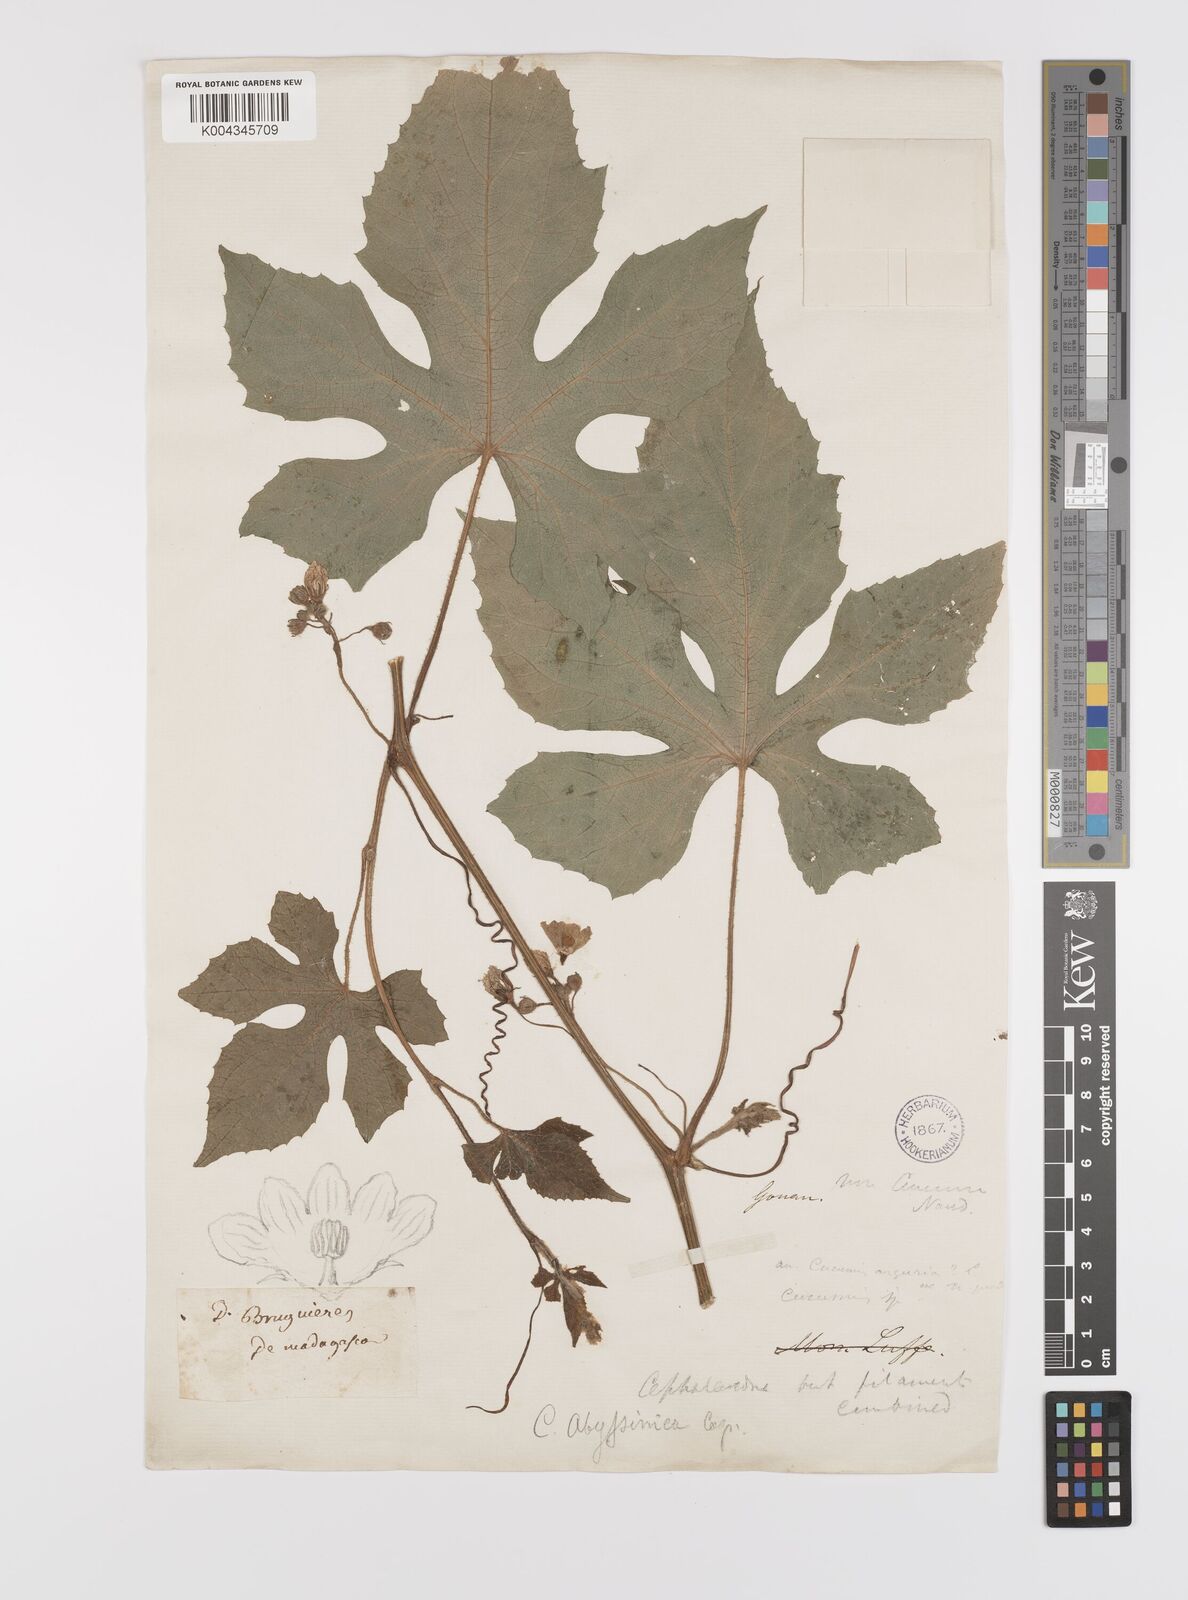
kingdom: Plantae
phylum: Tracheophyta
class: Magnoliopsida
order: Cucurbitales
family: Cucurbitaceae
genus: Coccinia
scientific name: Coccinia abyssinica
